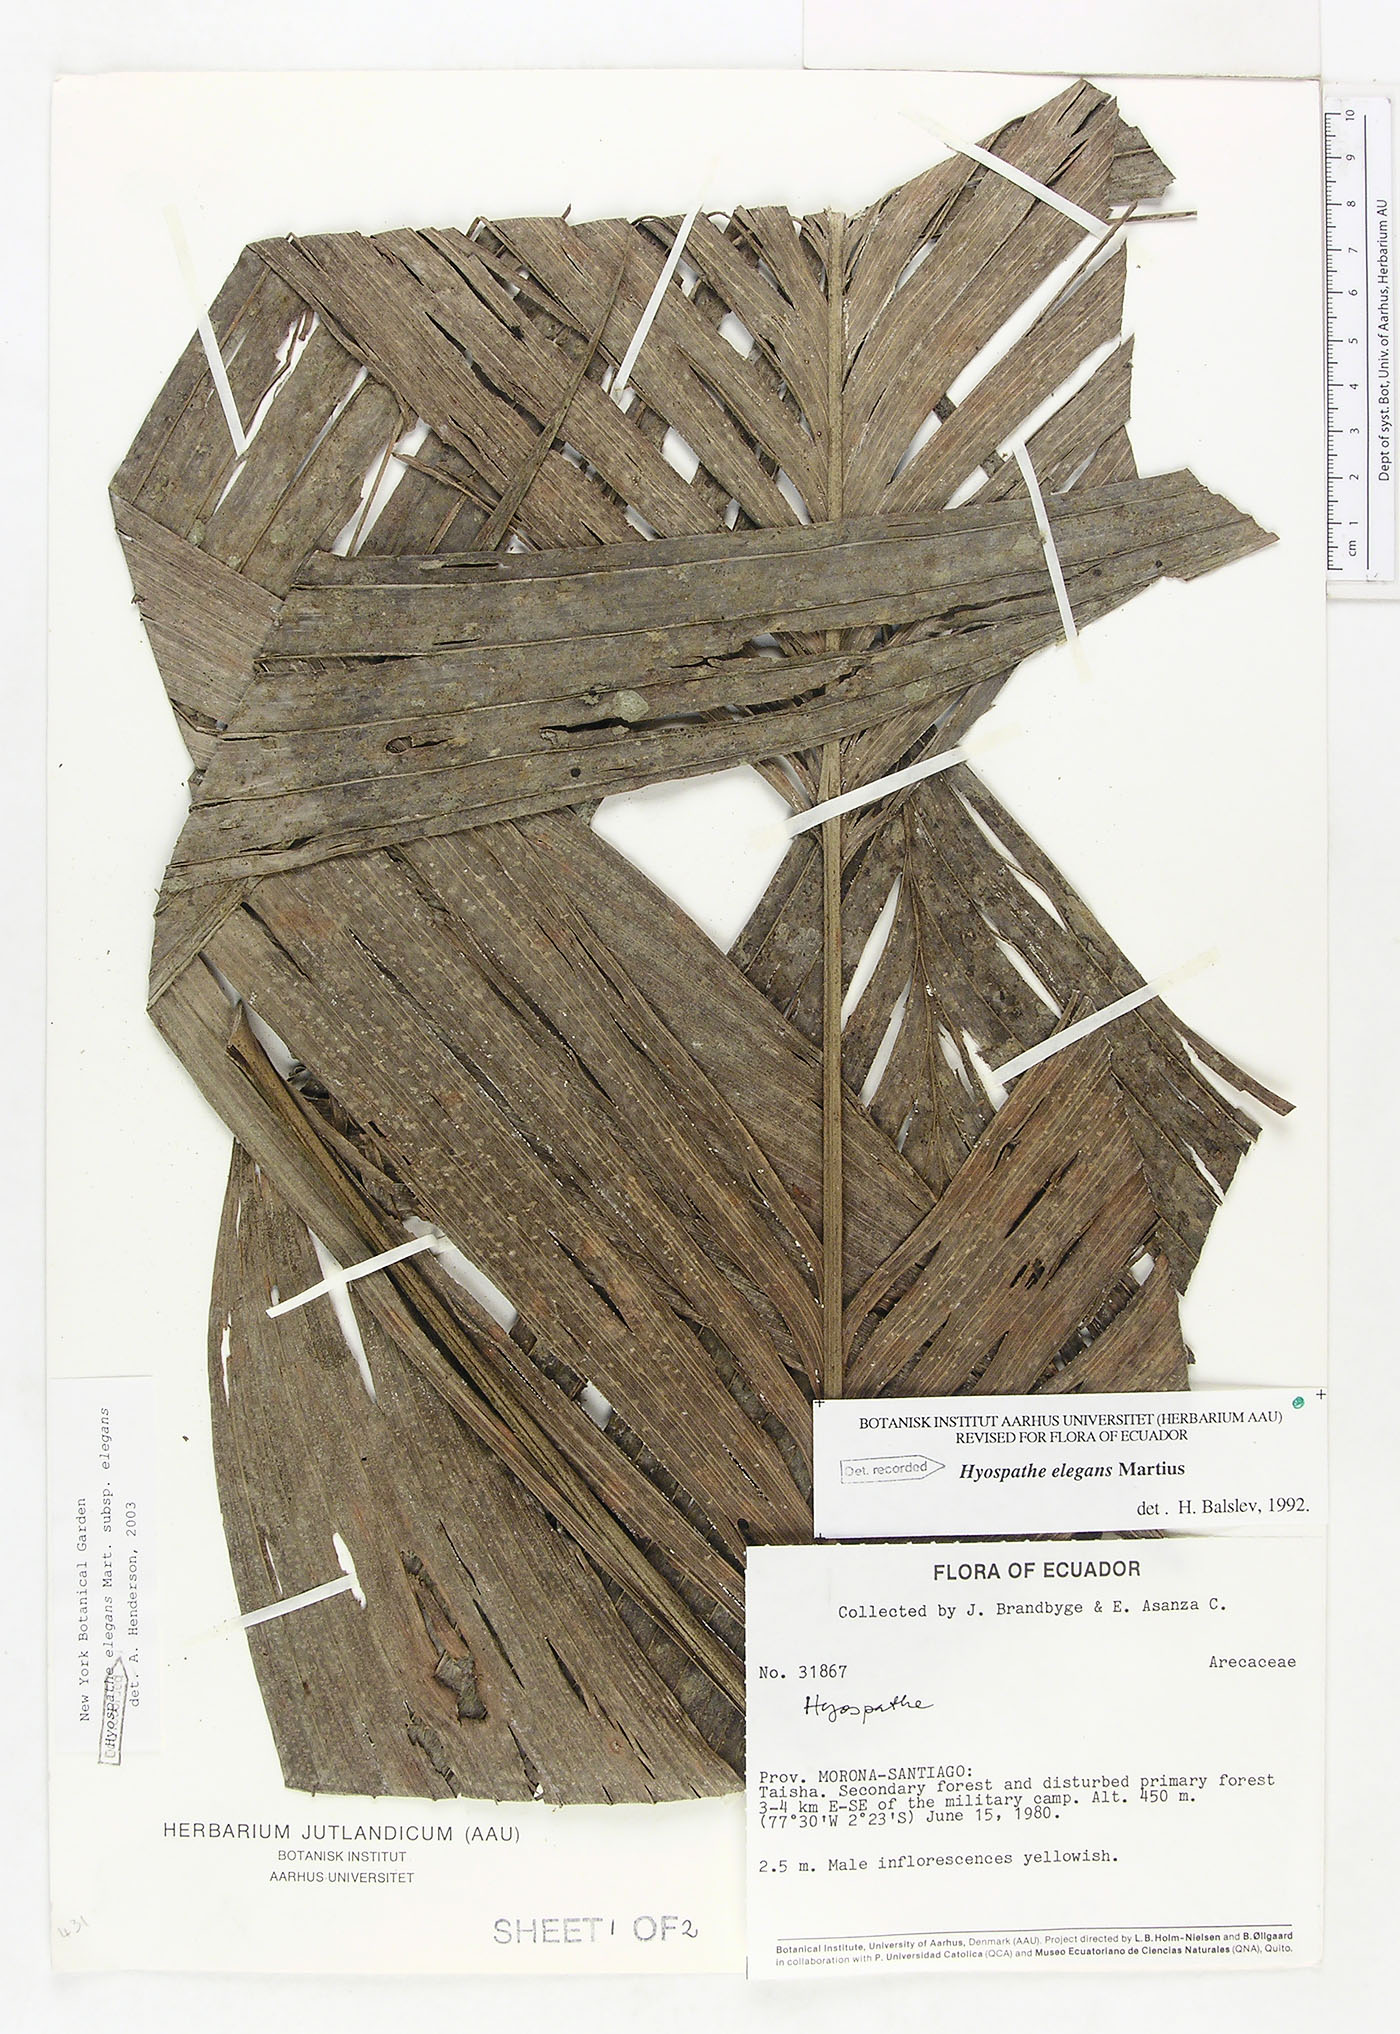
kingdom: Plantae
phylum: Tracheophyta
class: Liliopsida
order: Arecales
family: Arecaceae
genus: Hyospathe
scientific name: Hyospathe elegans
